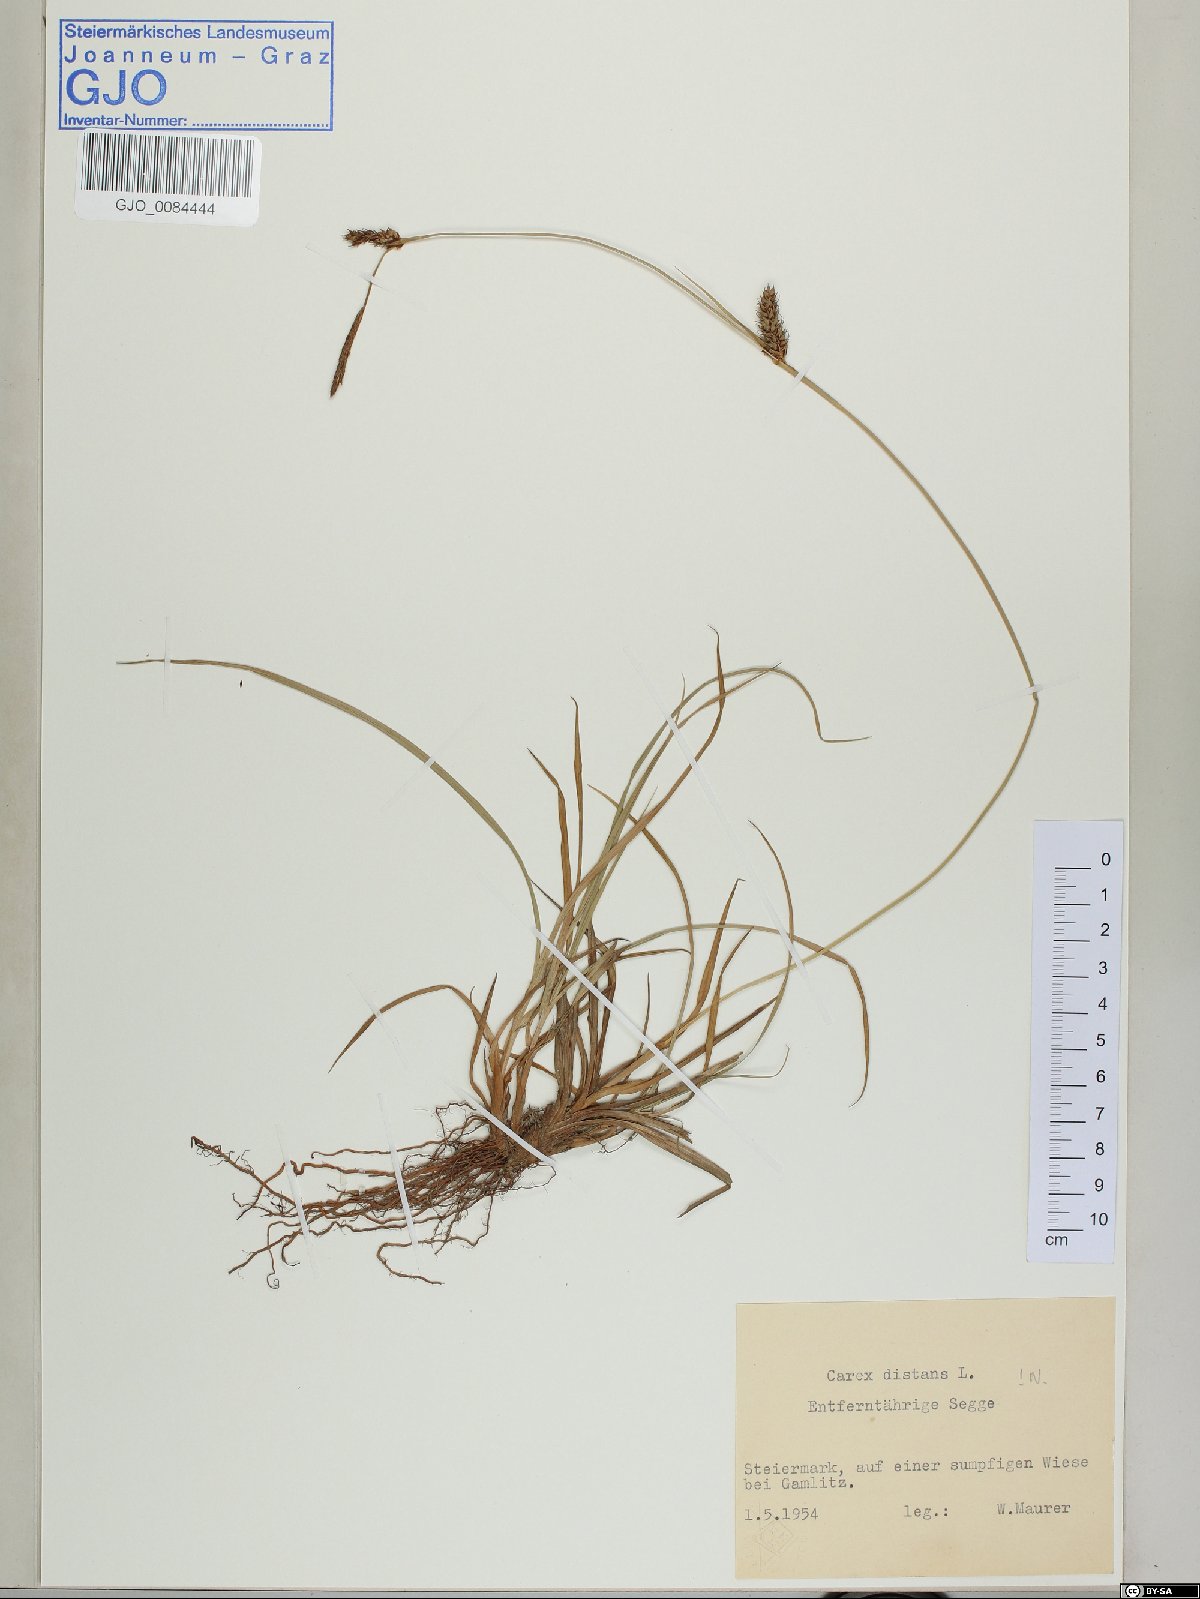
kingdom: Plantae
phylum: Tracheophyta
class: Liliopsida
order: Poales
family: Cyperaceae
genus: Carex
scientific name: Carex distans
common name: Distant sedge
